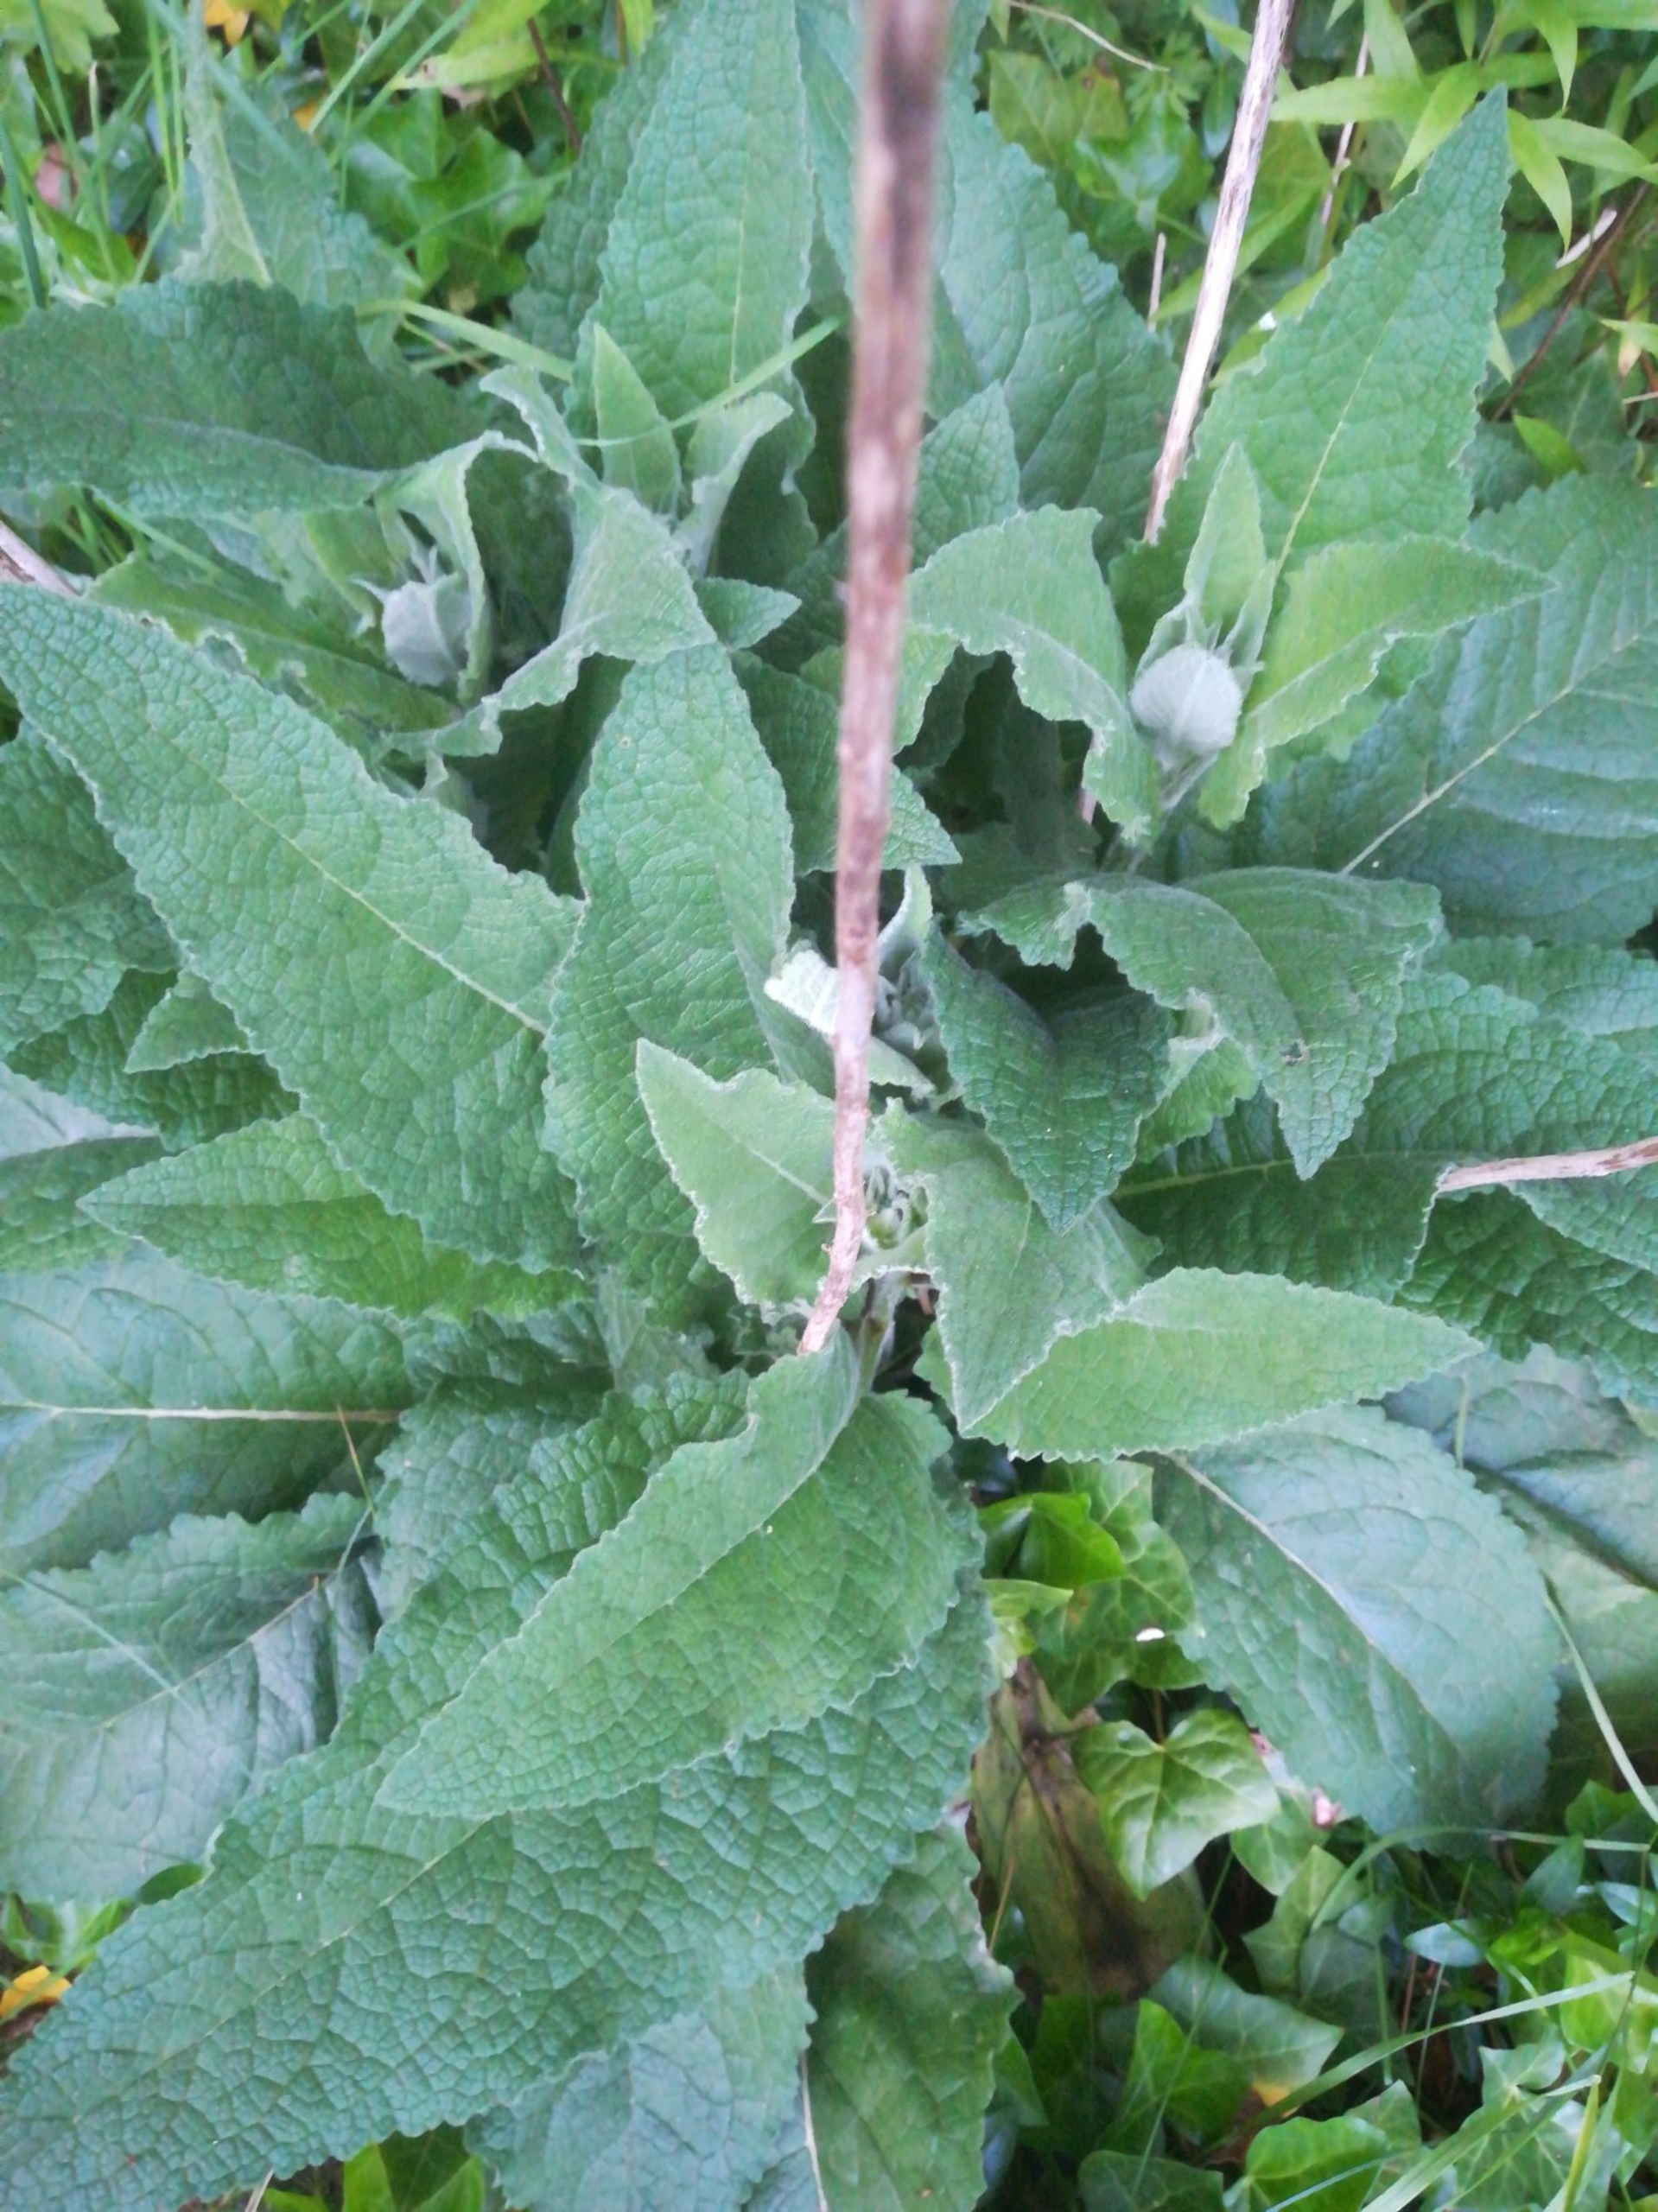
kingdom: Plantae
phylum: Tracheophyta
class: Magnoliopsida
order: Lamiales
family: Scrophulariaceae
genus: Verbascum
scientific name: Verbascum nigrum
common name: Mørk kongelys
